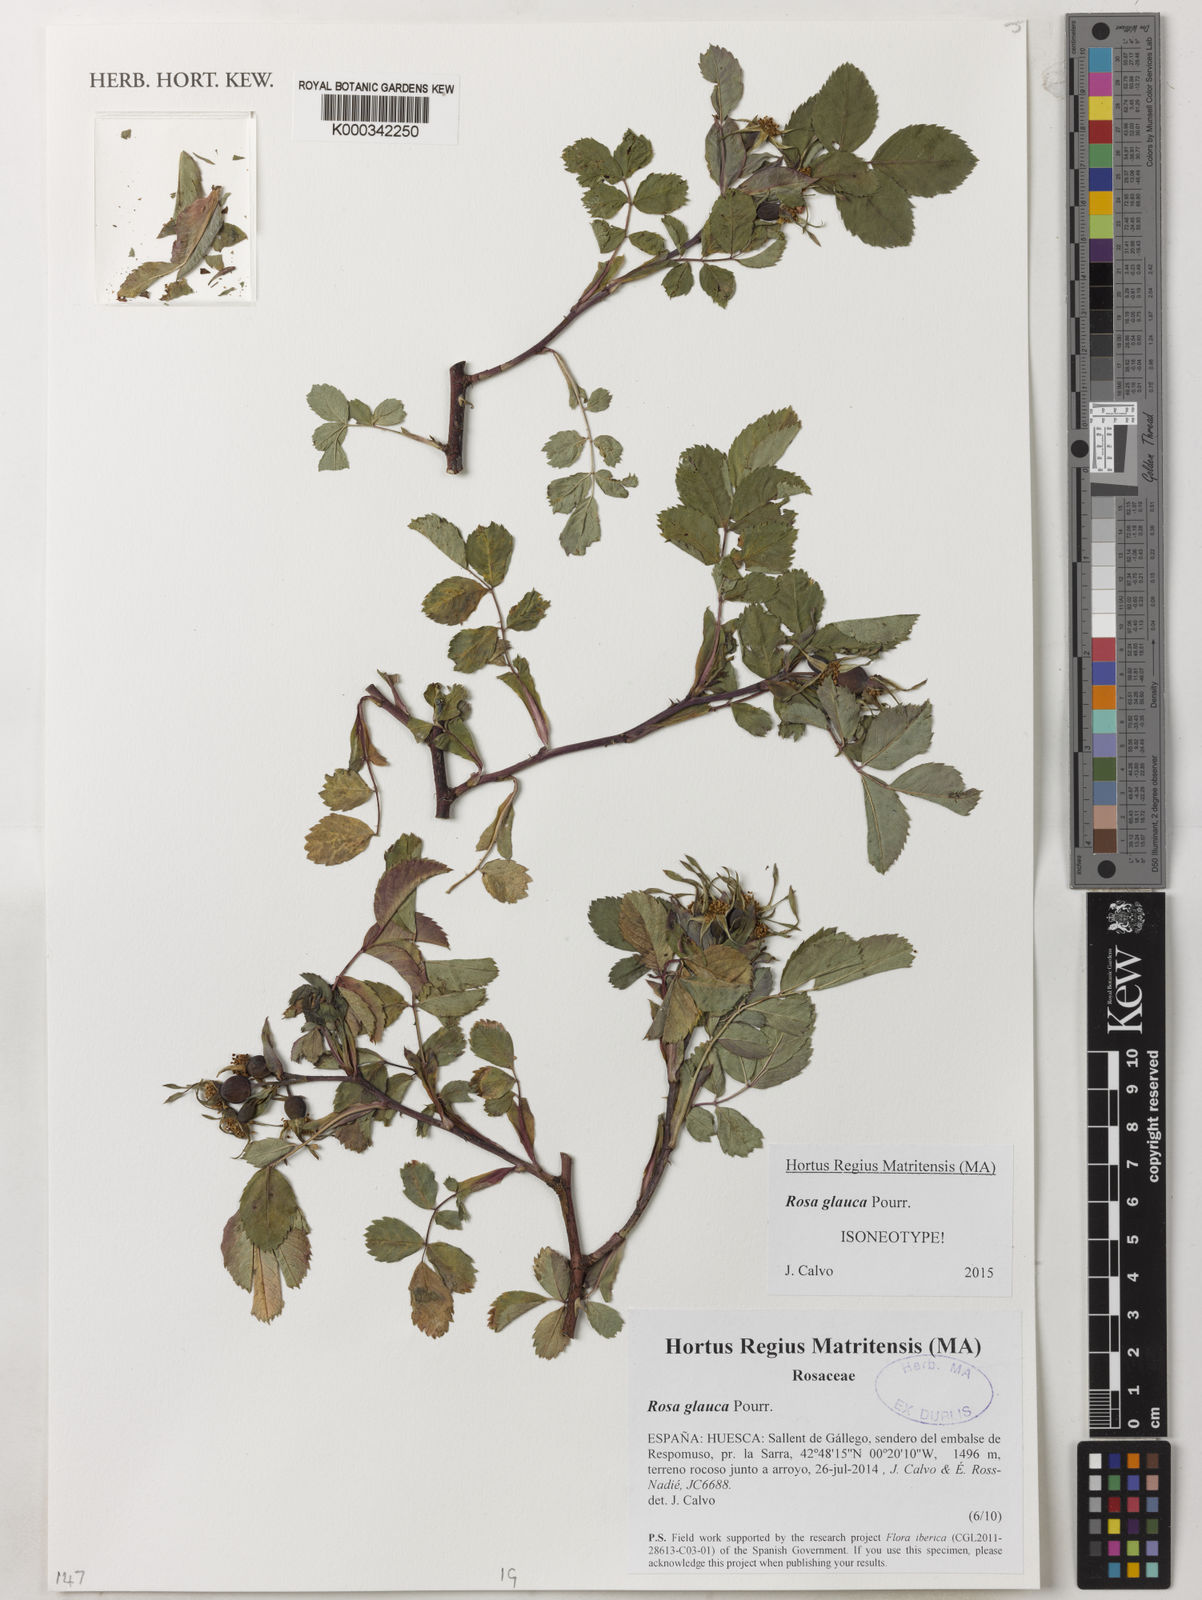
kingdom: Plantae
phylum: Tracheophyta
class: Magnoliopsida
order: Rosales
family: Rosaceae
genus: Rosa
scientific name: Rosa glauca
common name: Redleaf rose
